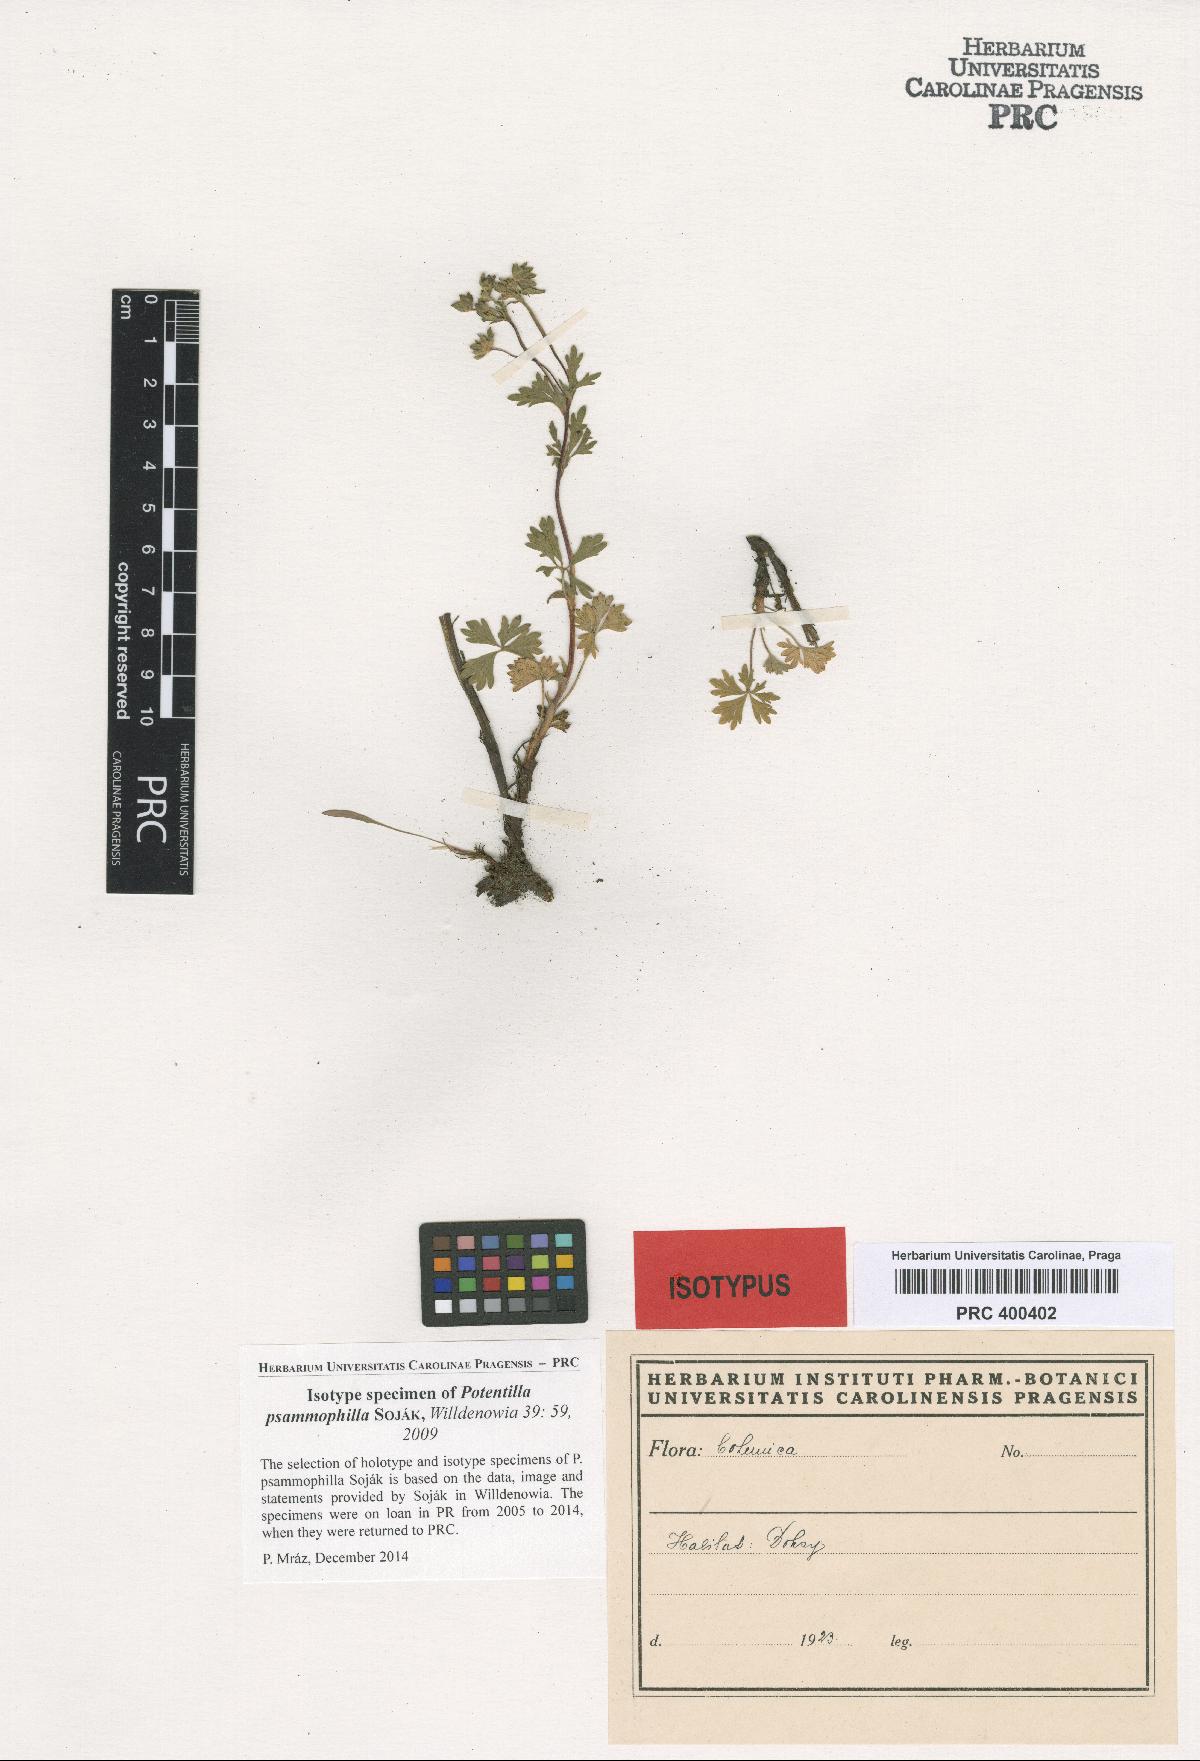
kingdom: Plantae
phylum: Tracheophyta
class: Magnoliopsida
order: Rosales
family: Rosaceae
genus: Potentilla
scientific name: Potentilla psammophila
